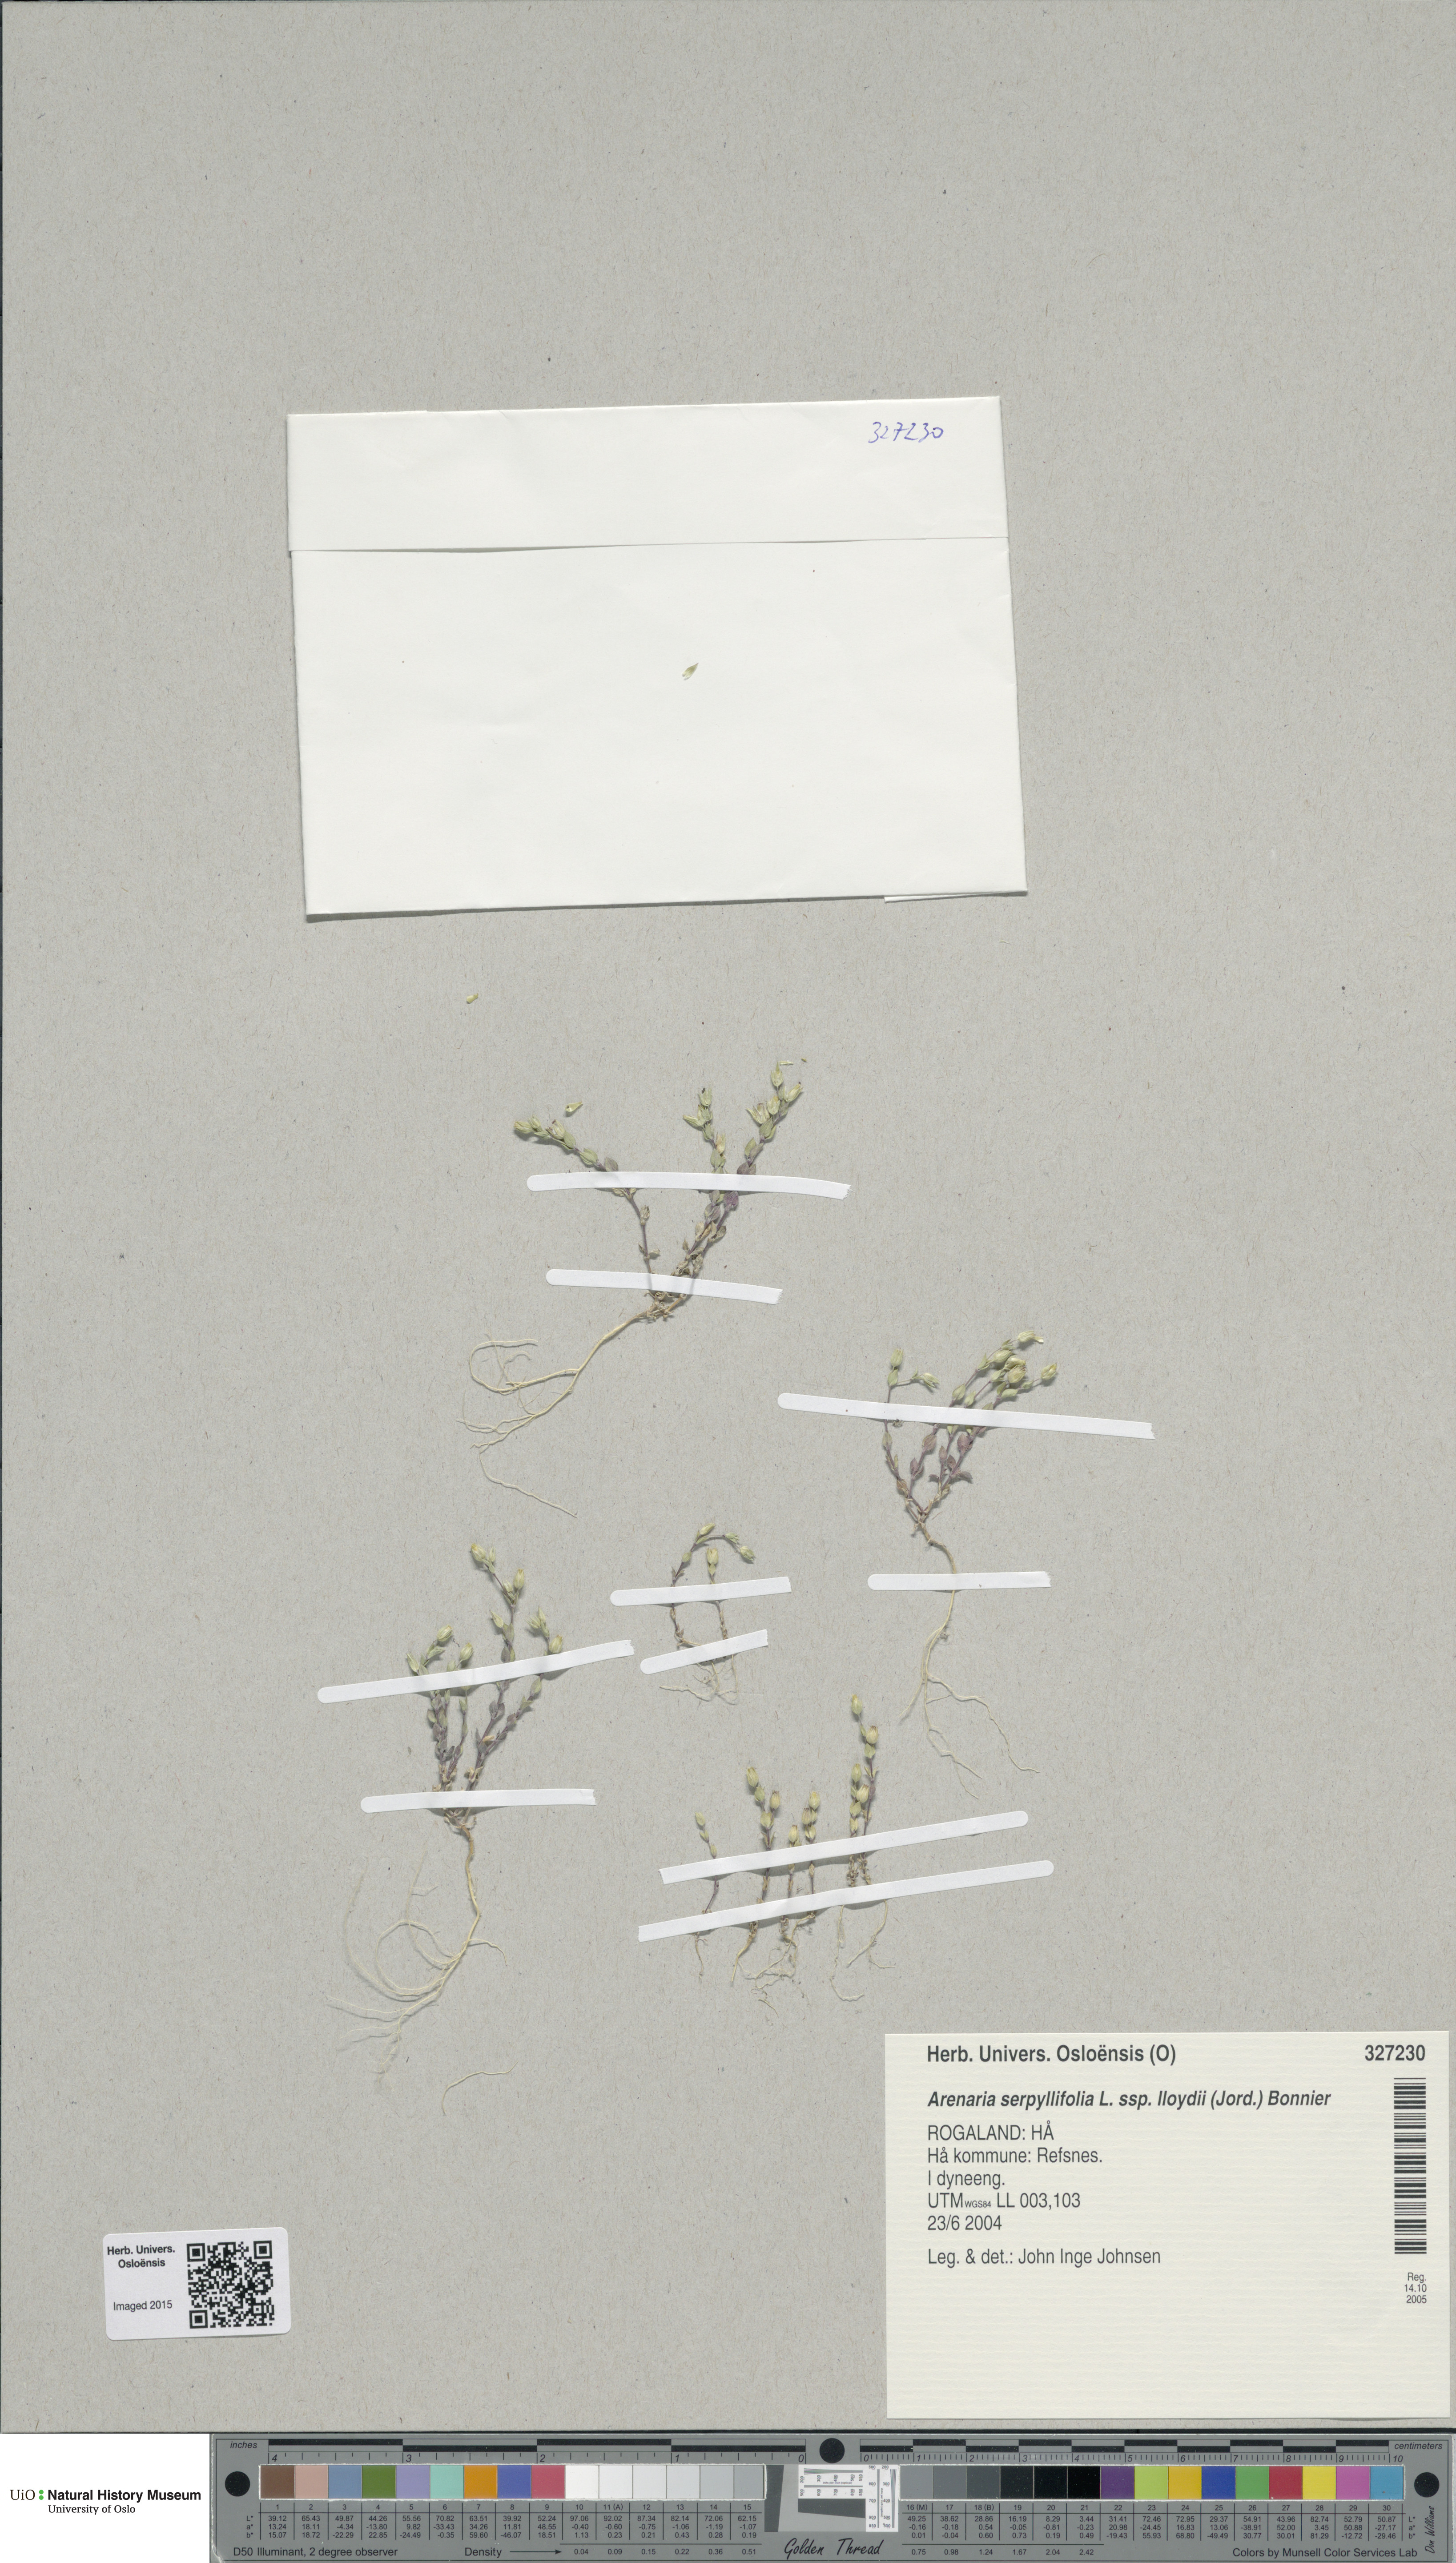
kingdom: Plantae
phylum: Tracheophyta
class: Magnoliopsida
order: Caryophyllales
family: Caryophyllaceae
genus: Arenaria
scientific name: Arenaria serpyllifolia
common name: Thyme-leaved sandwort
